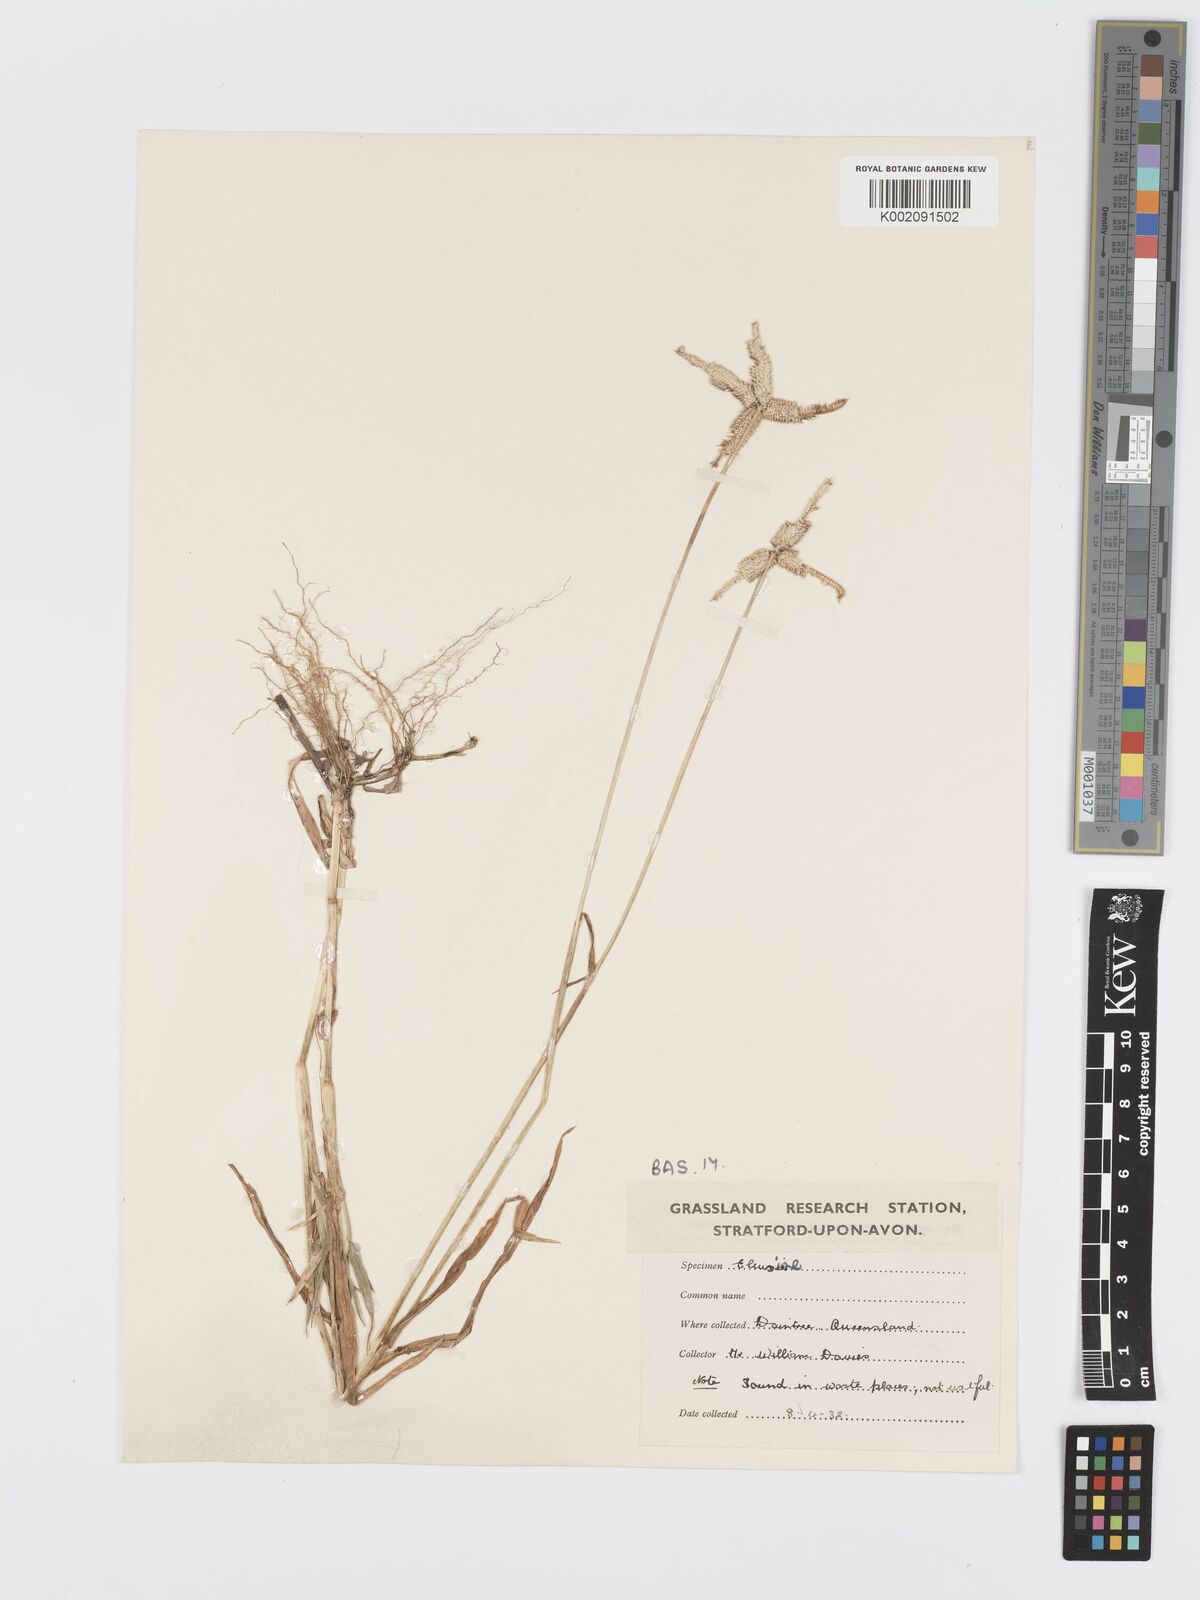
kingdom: Plantae
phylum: Tracheophyta
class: Liliopsida
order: Poales
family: Poaceae
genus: Dactyloctenium
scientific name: Dactyloctenium aegyptium
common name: Egyptian grass
